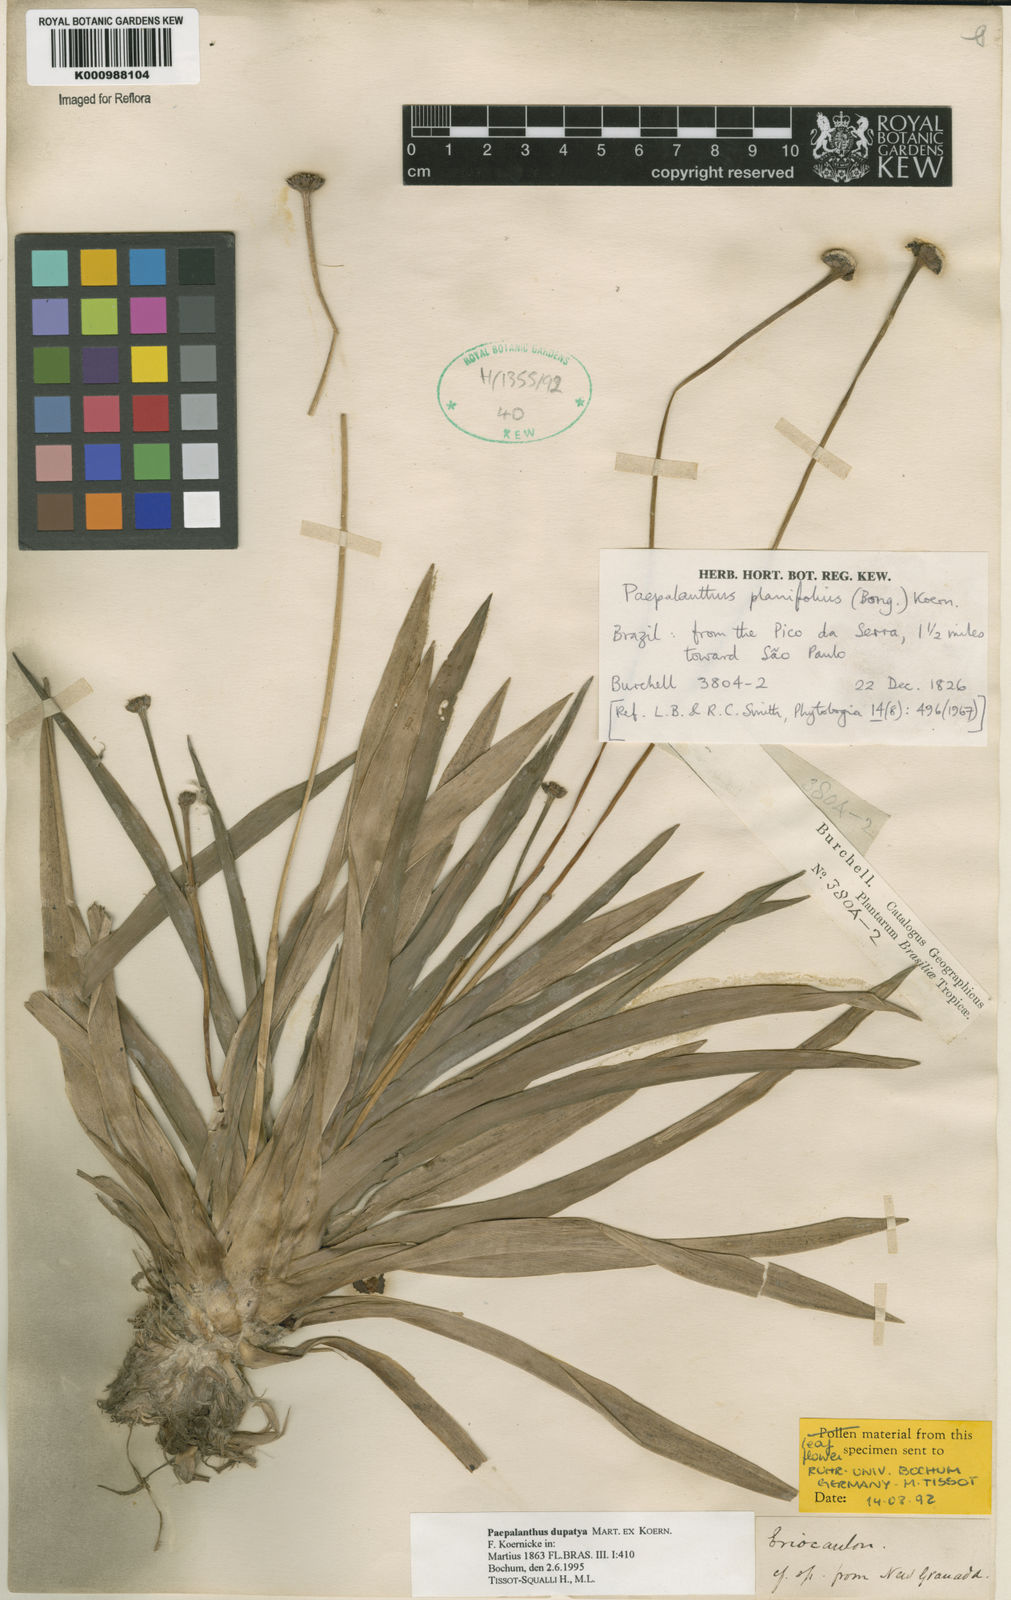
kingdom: Plantae
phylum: Tracheophyta
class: Liliopsida
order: Poales
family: Eriocaulaceae
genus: Paepalanthus
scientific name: Paepalanthus
